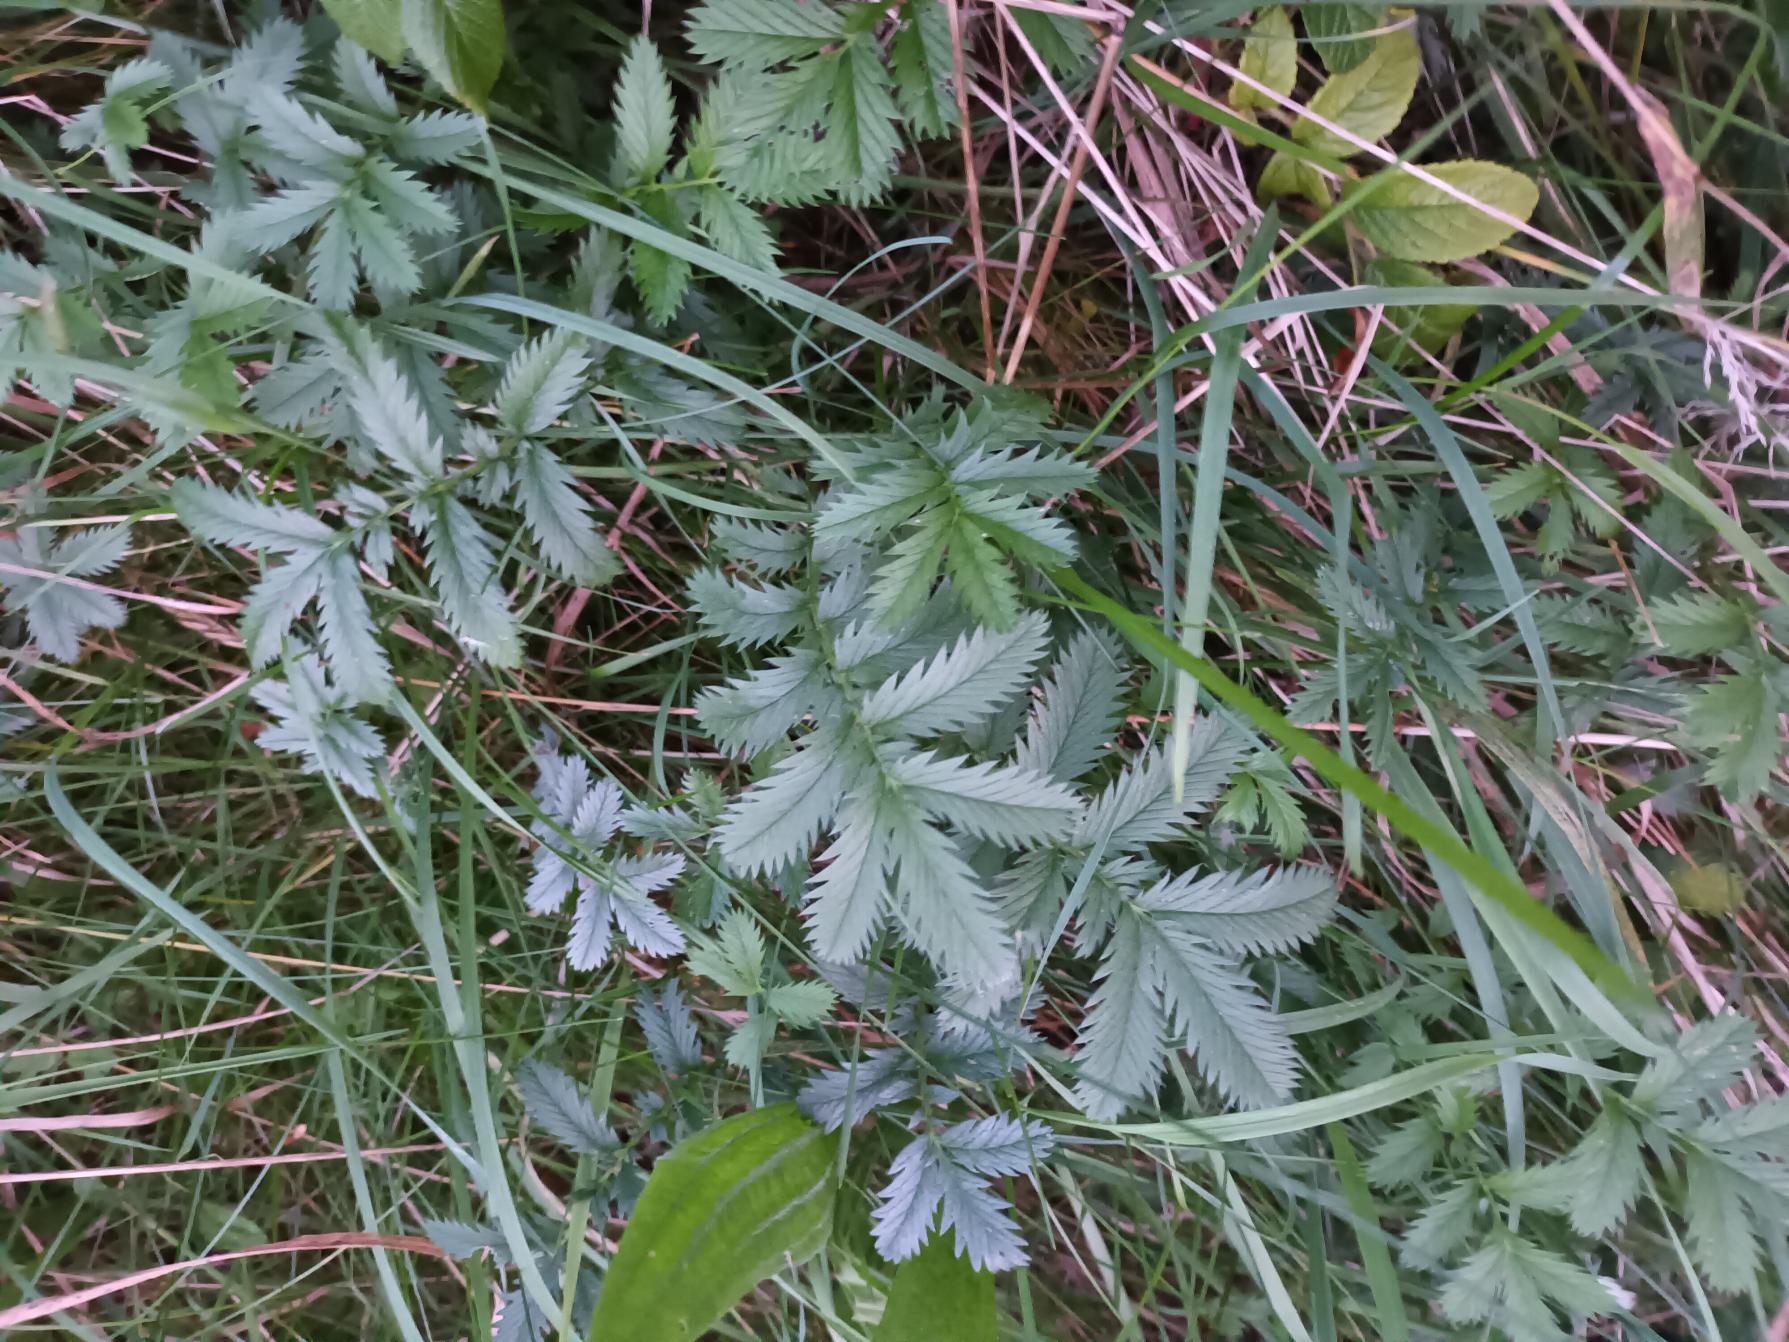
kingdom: Plantae
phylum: Tracheophyta
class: Magnoliopsida
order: Rosales
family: Rosaceae
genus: Argentina
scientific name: Argentina anserina
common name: Gåsepotentil
